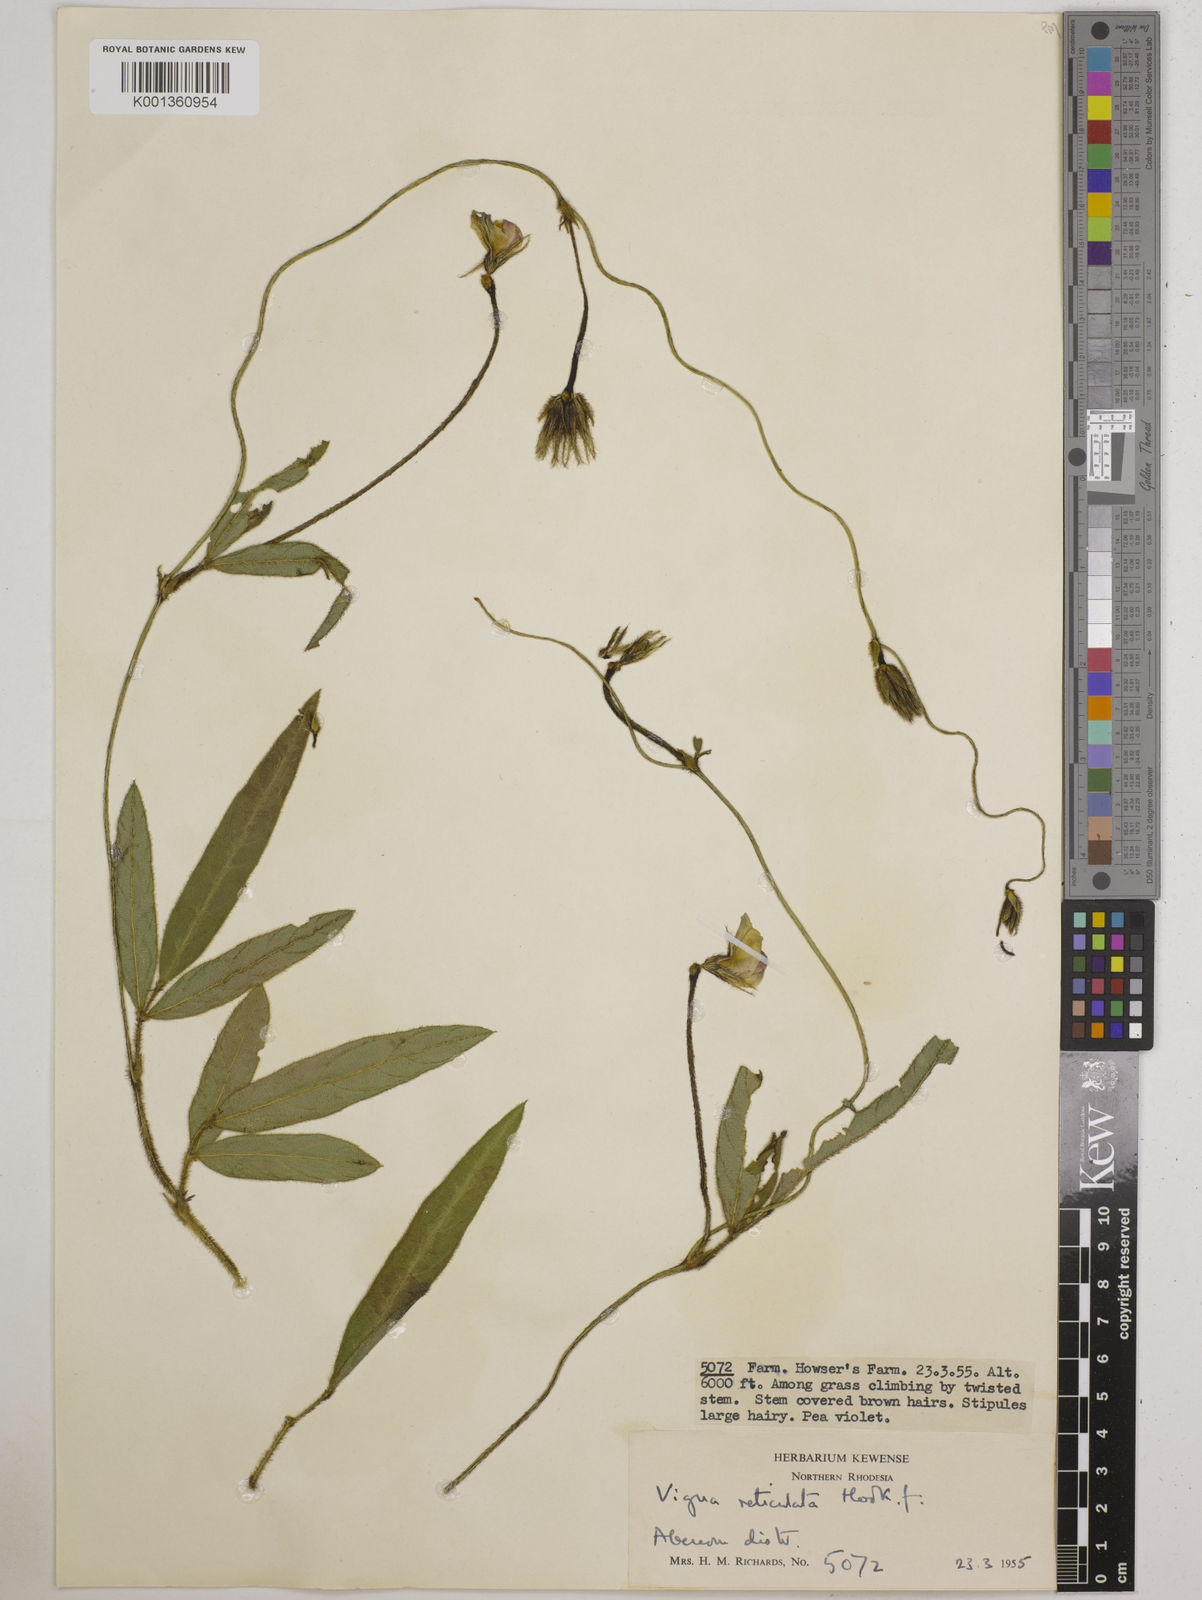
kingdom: Plantae
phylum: Tracheophyta
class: Magnoliopsida
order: Fabales
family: Fabaceae
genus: Vigna
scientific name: Vigna reticulata
